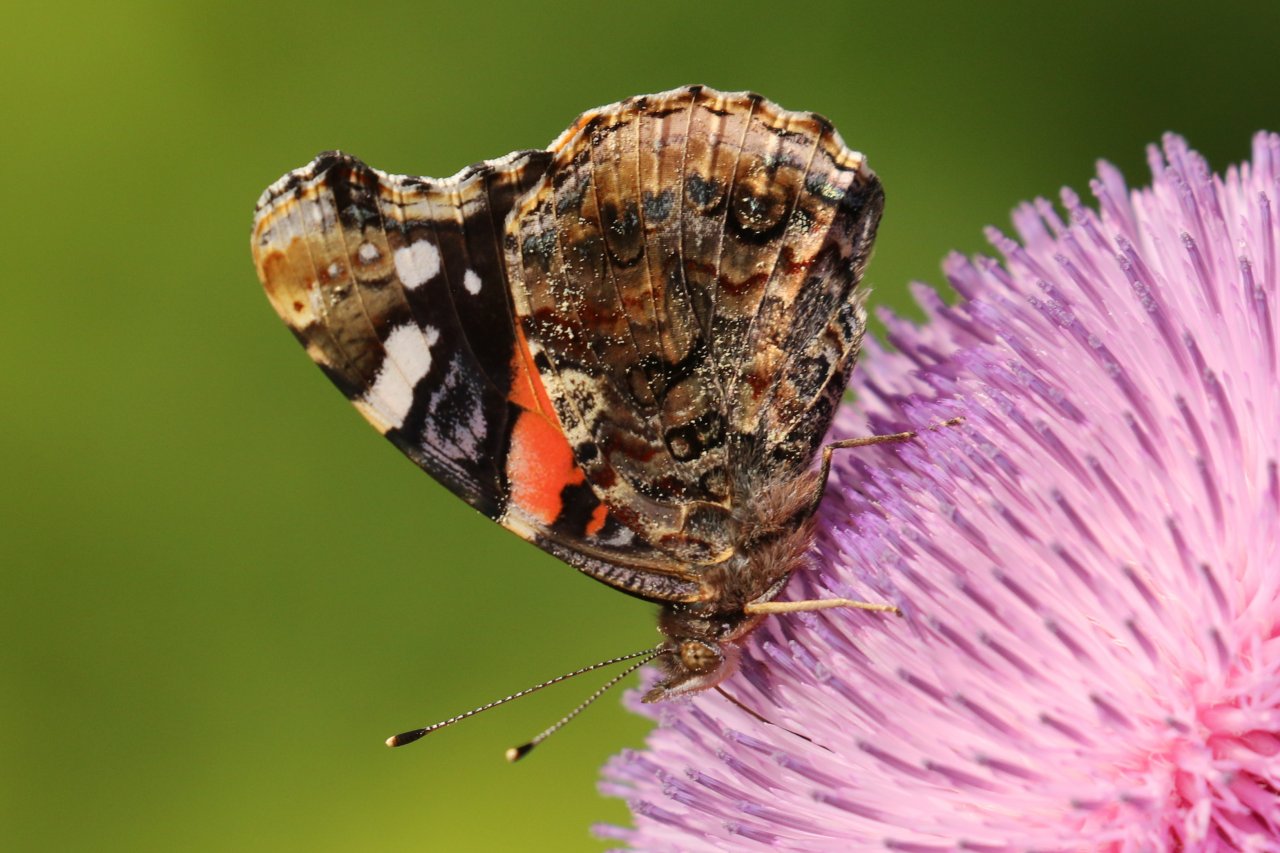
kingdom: Animalia
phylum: Arthropoda
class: Insecta
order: Lepidoptera
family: Nymphalidae
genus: Vanessa
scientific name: Vanessa atalanta
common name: Red Admiral
